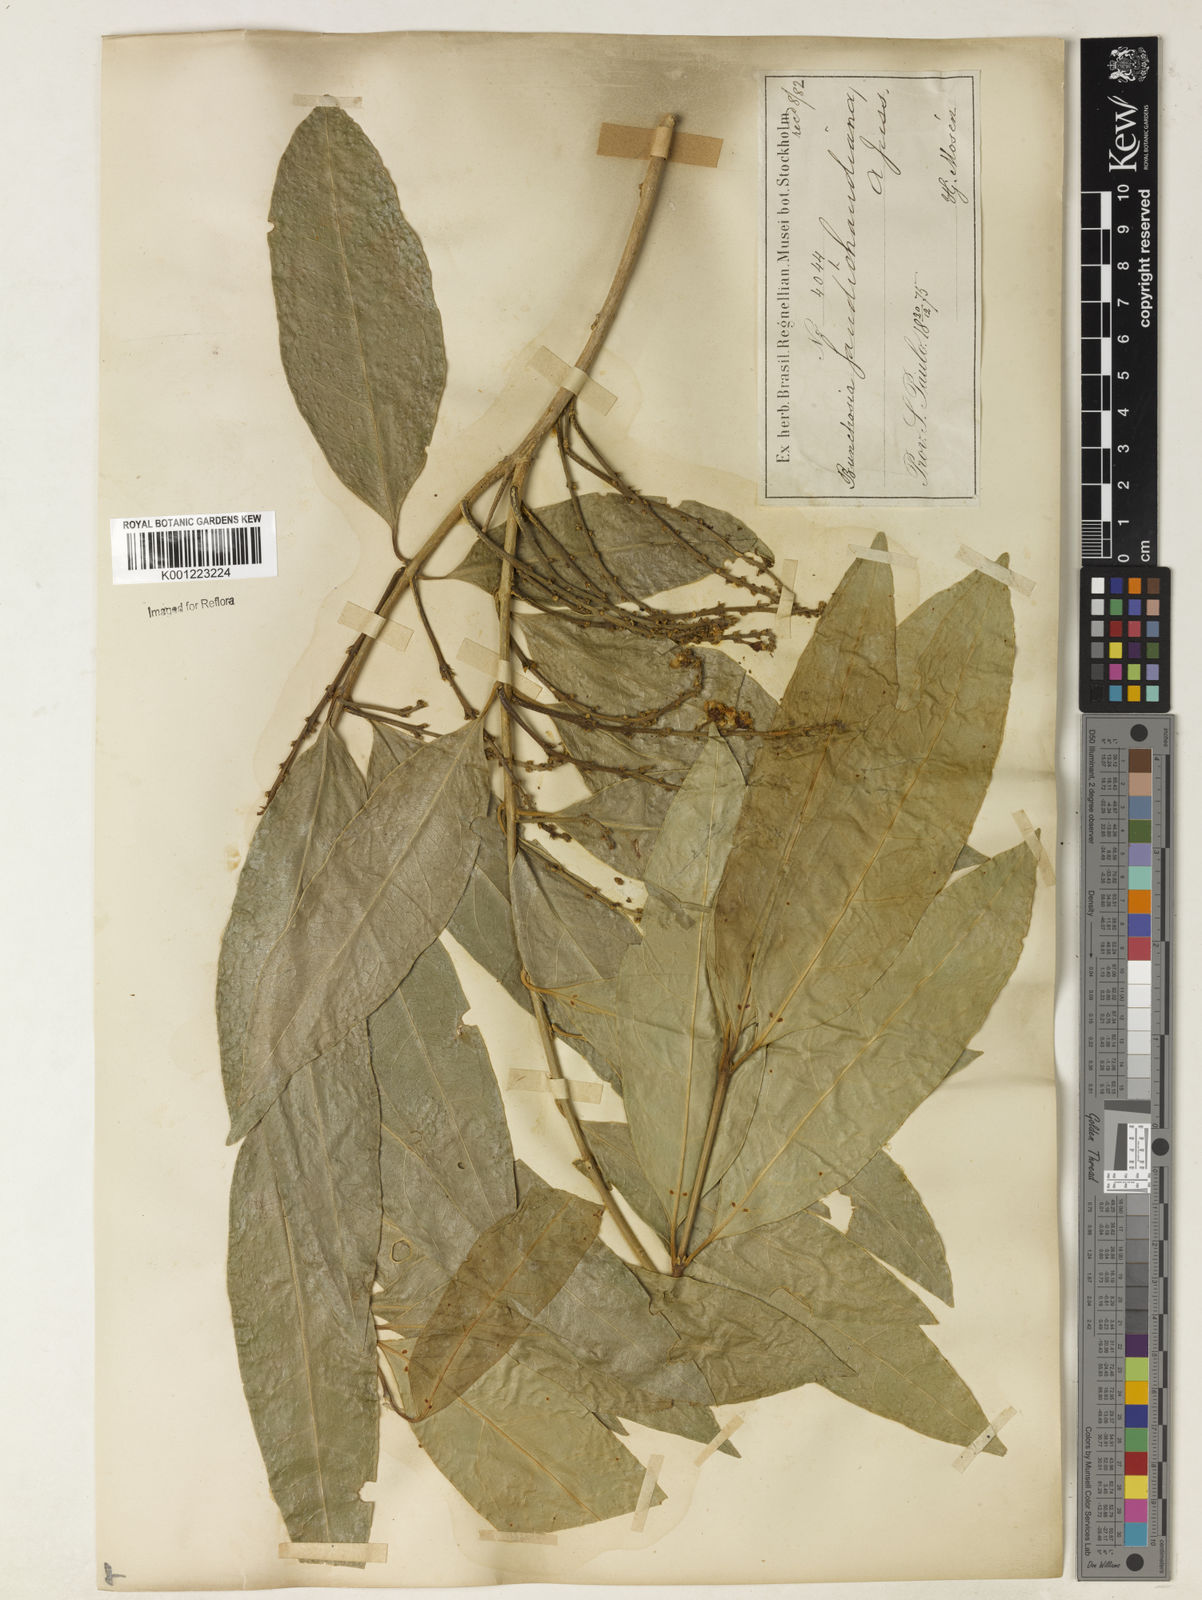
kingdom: Plantae
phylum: Tracheophyta
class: Magnoliopsida
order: Malpighiales
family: Malpighiaceae
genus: Bunchosia
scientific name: Bunchosia fluminensis
